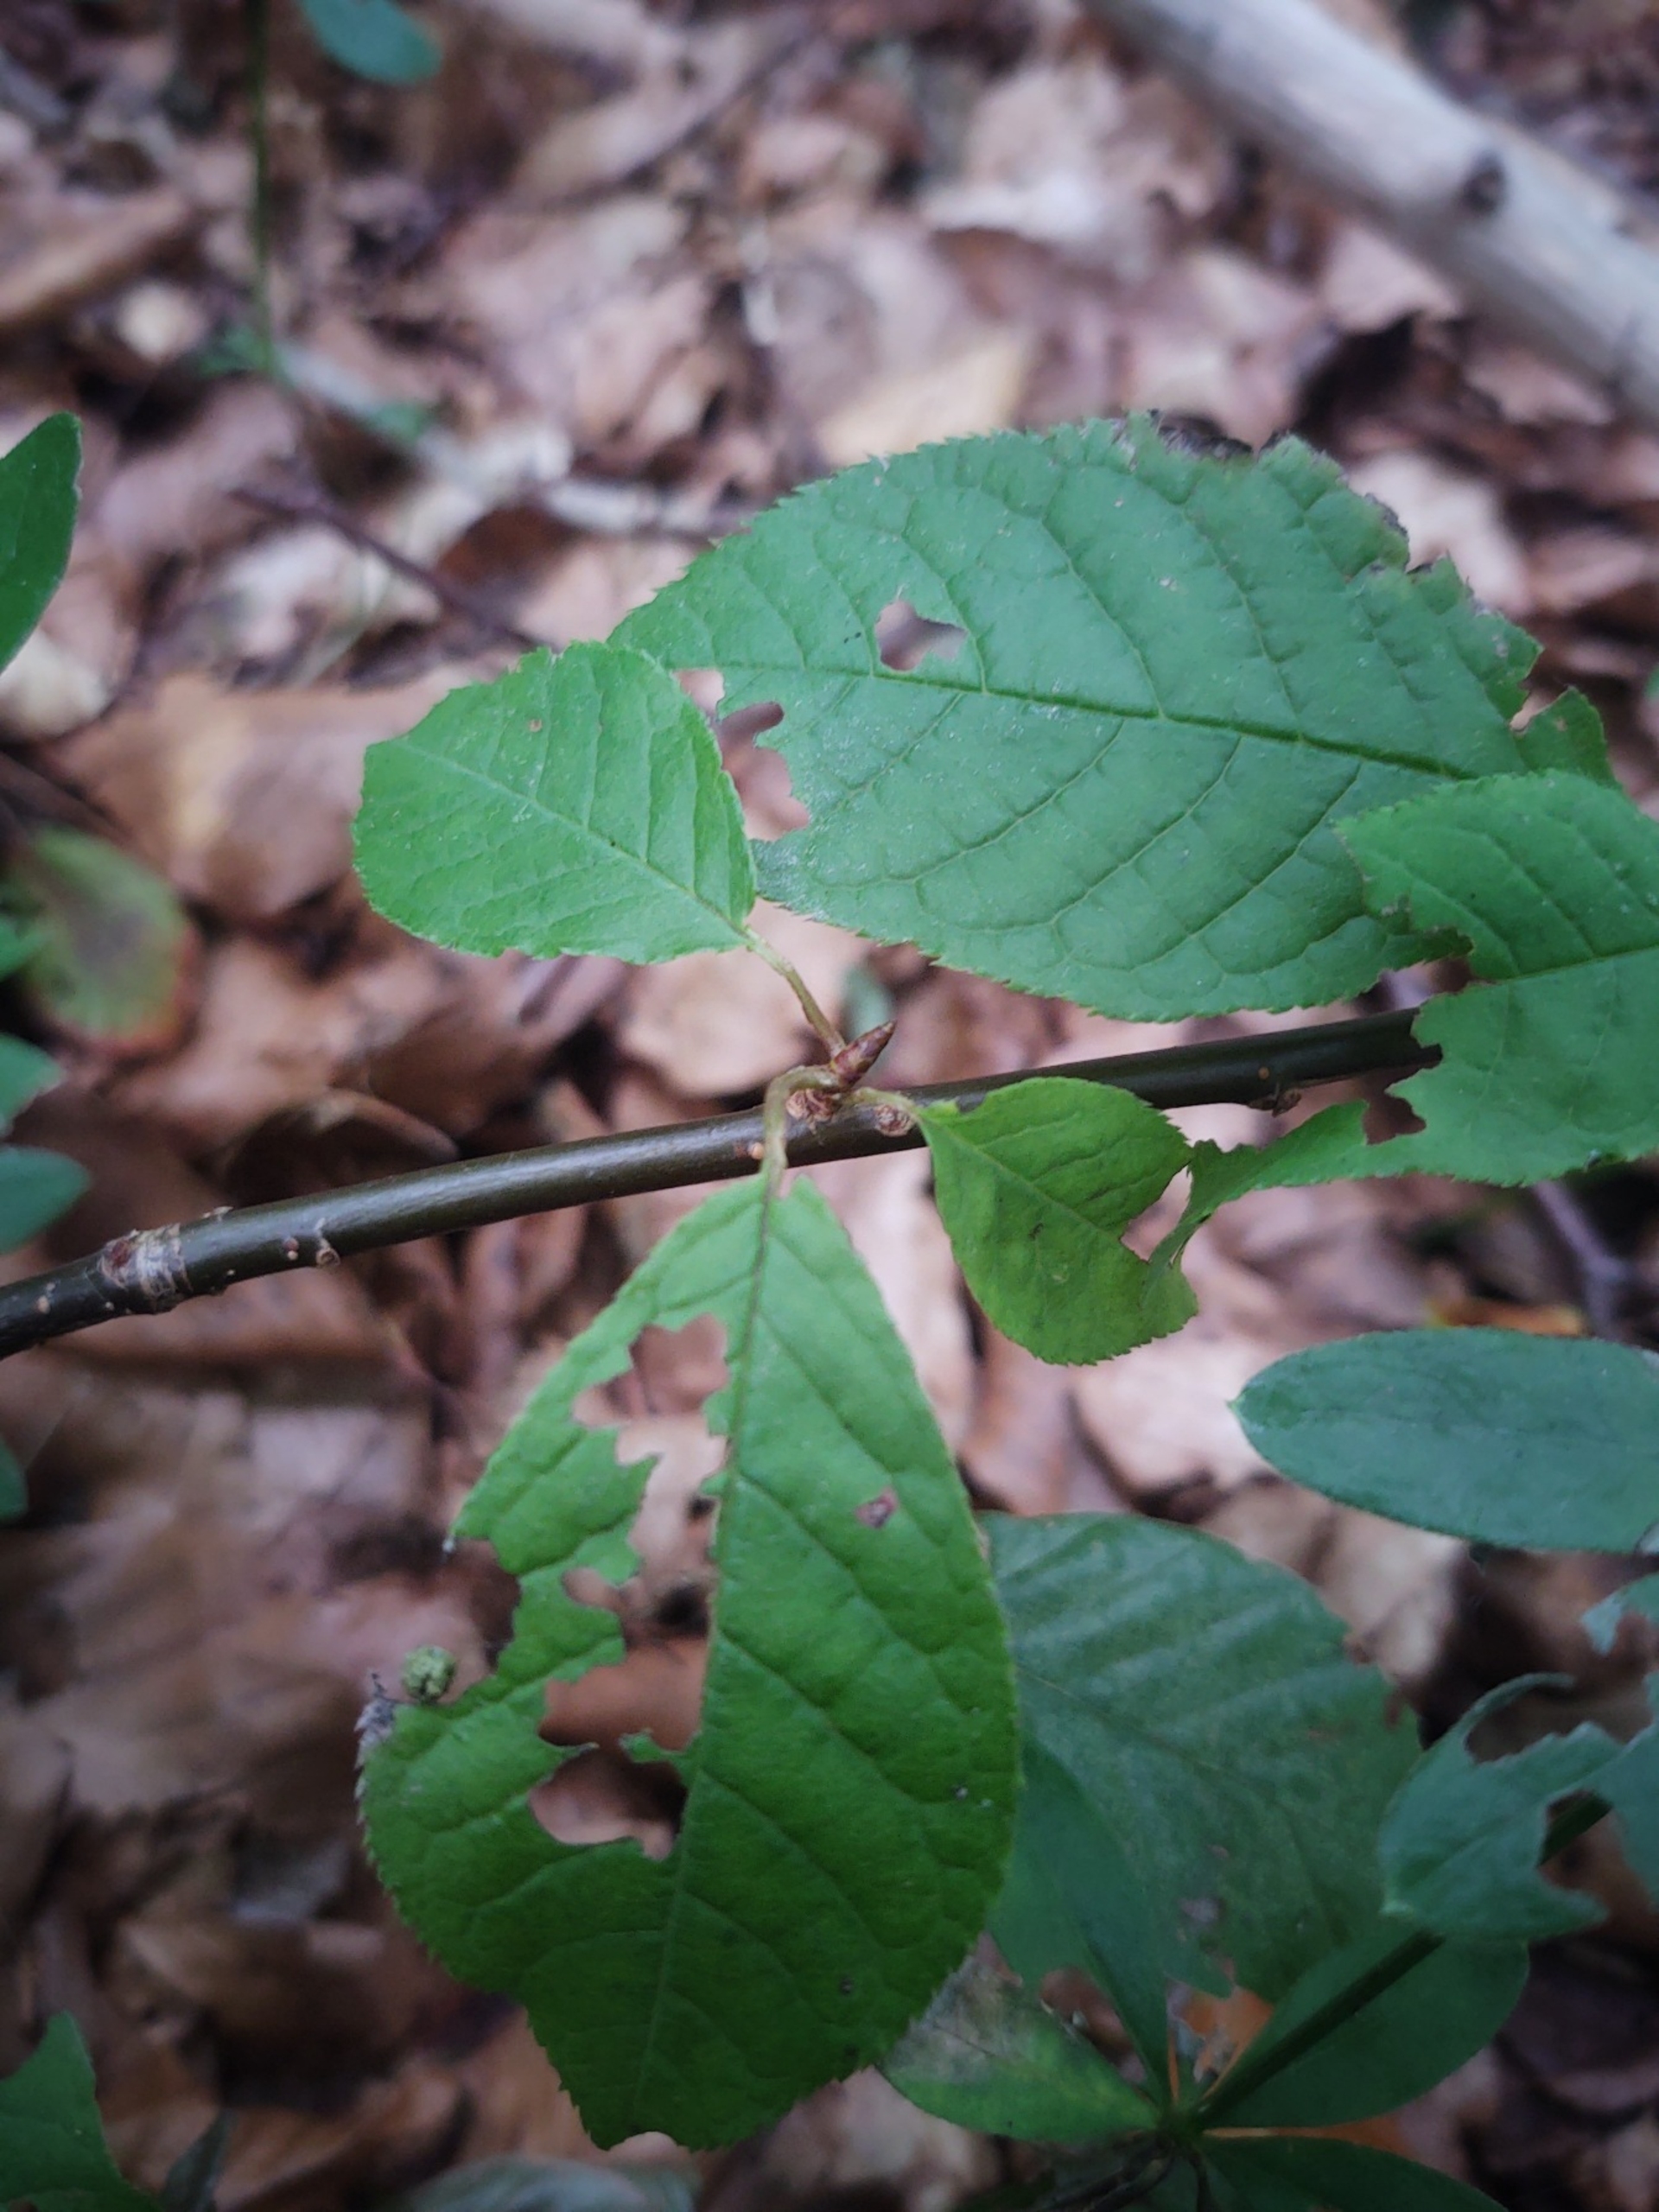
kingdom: Plantae
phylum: Tracheophyta
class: Magnoliopsida
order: Rosales
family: Rosaceae
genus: Prunus
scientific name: Prunus padus
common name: Almindelig hæg
